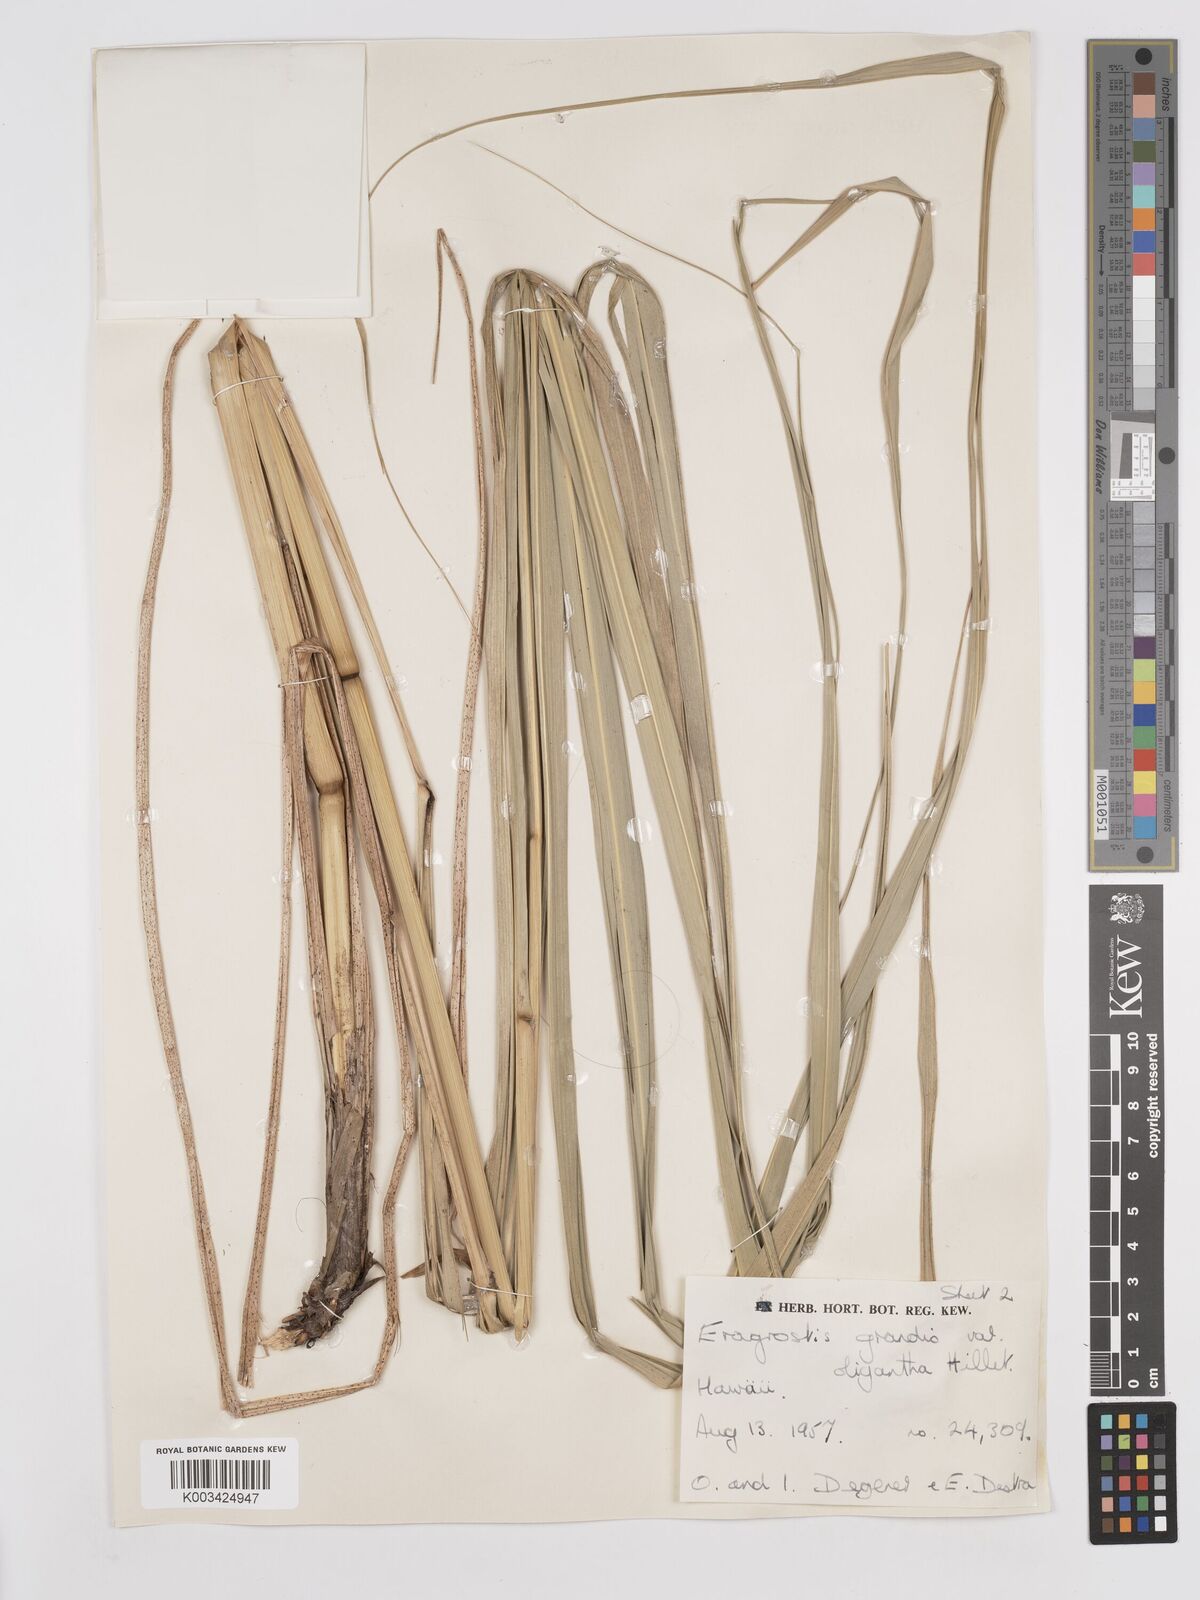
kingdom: Plantae
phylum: Tracheophyta
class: Liliopsida
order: Poales
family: Poaceae
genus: Eragrostis
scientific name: Eragrostis grandis
